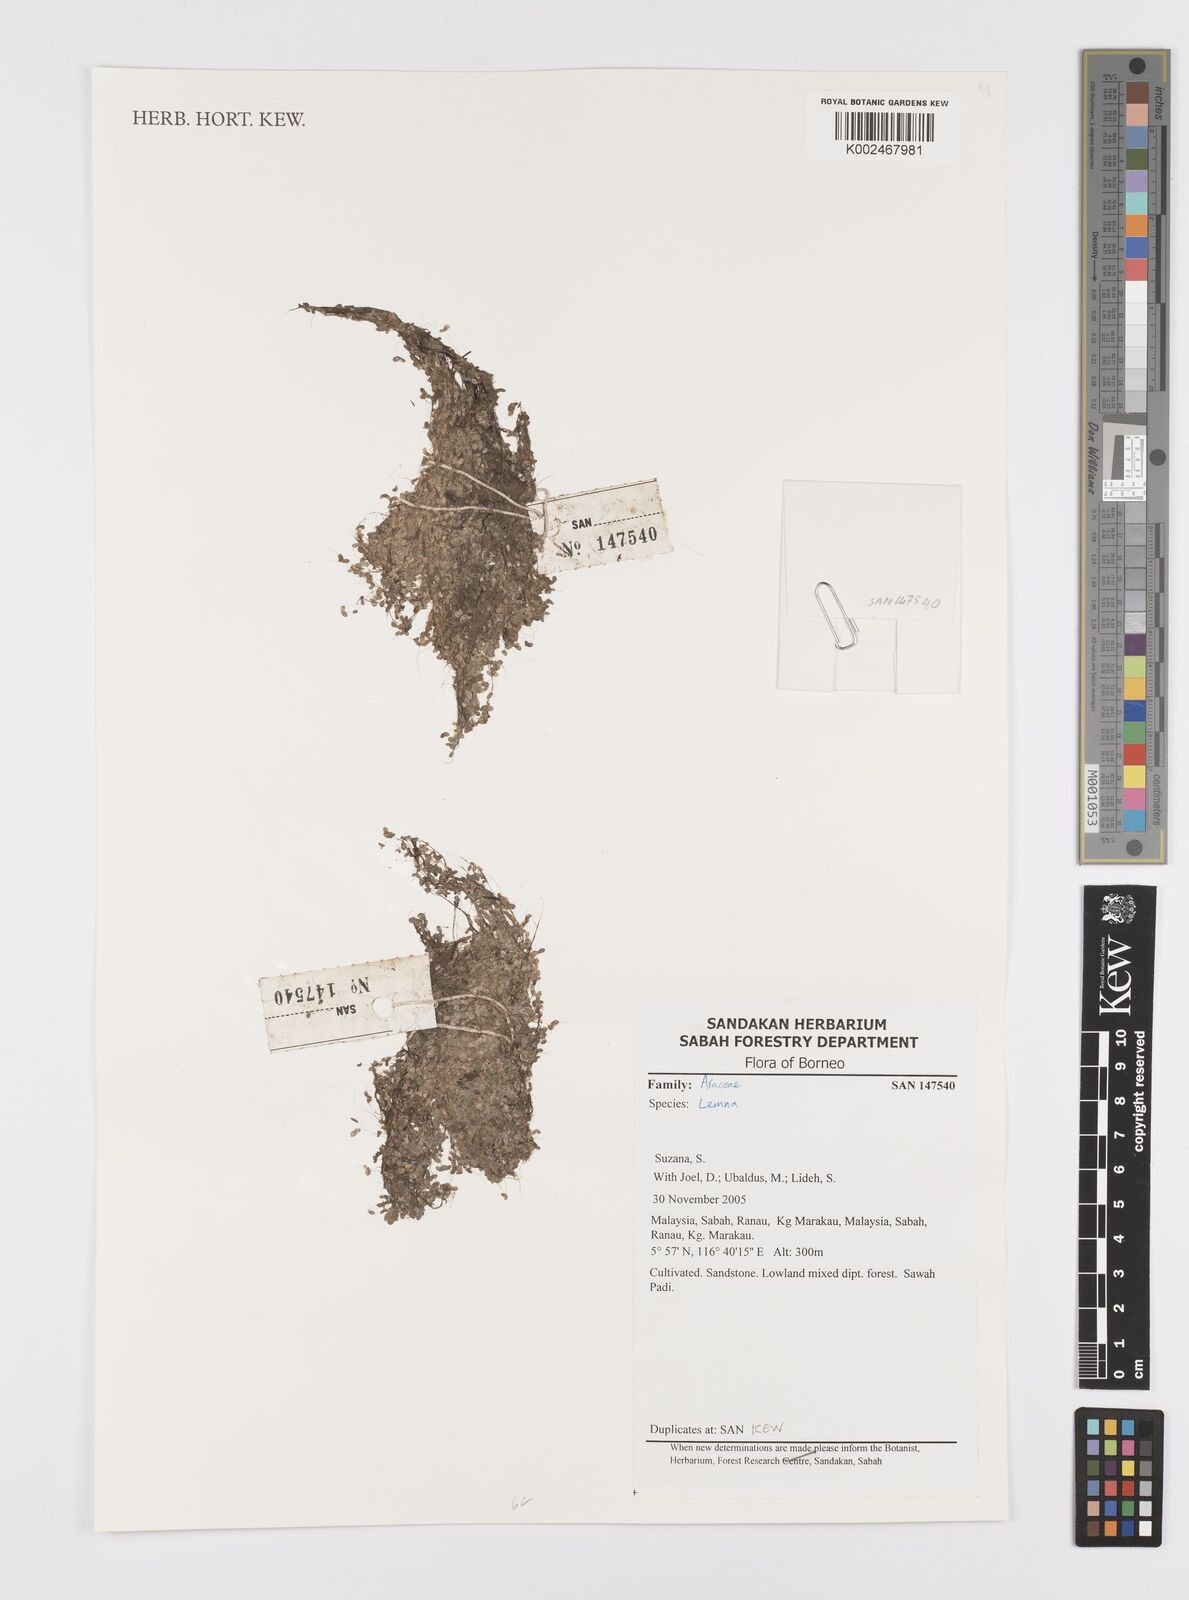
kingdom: Plantae
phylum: Tracheophyta
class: Liliopsida
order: Alismatales
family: Araceae
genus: Lemna
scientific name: Lemna
